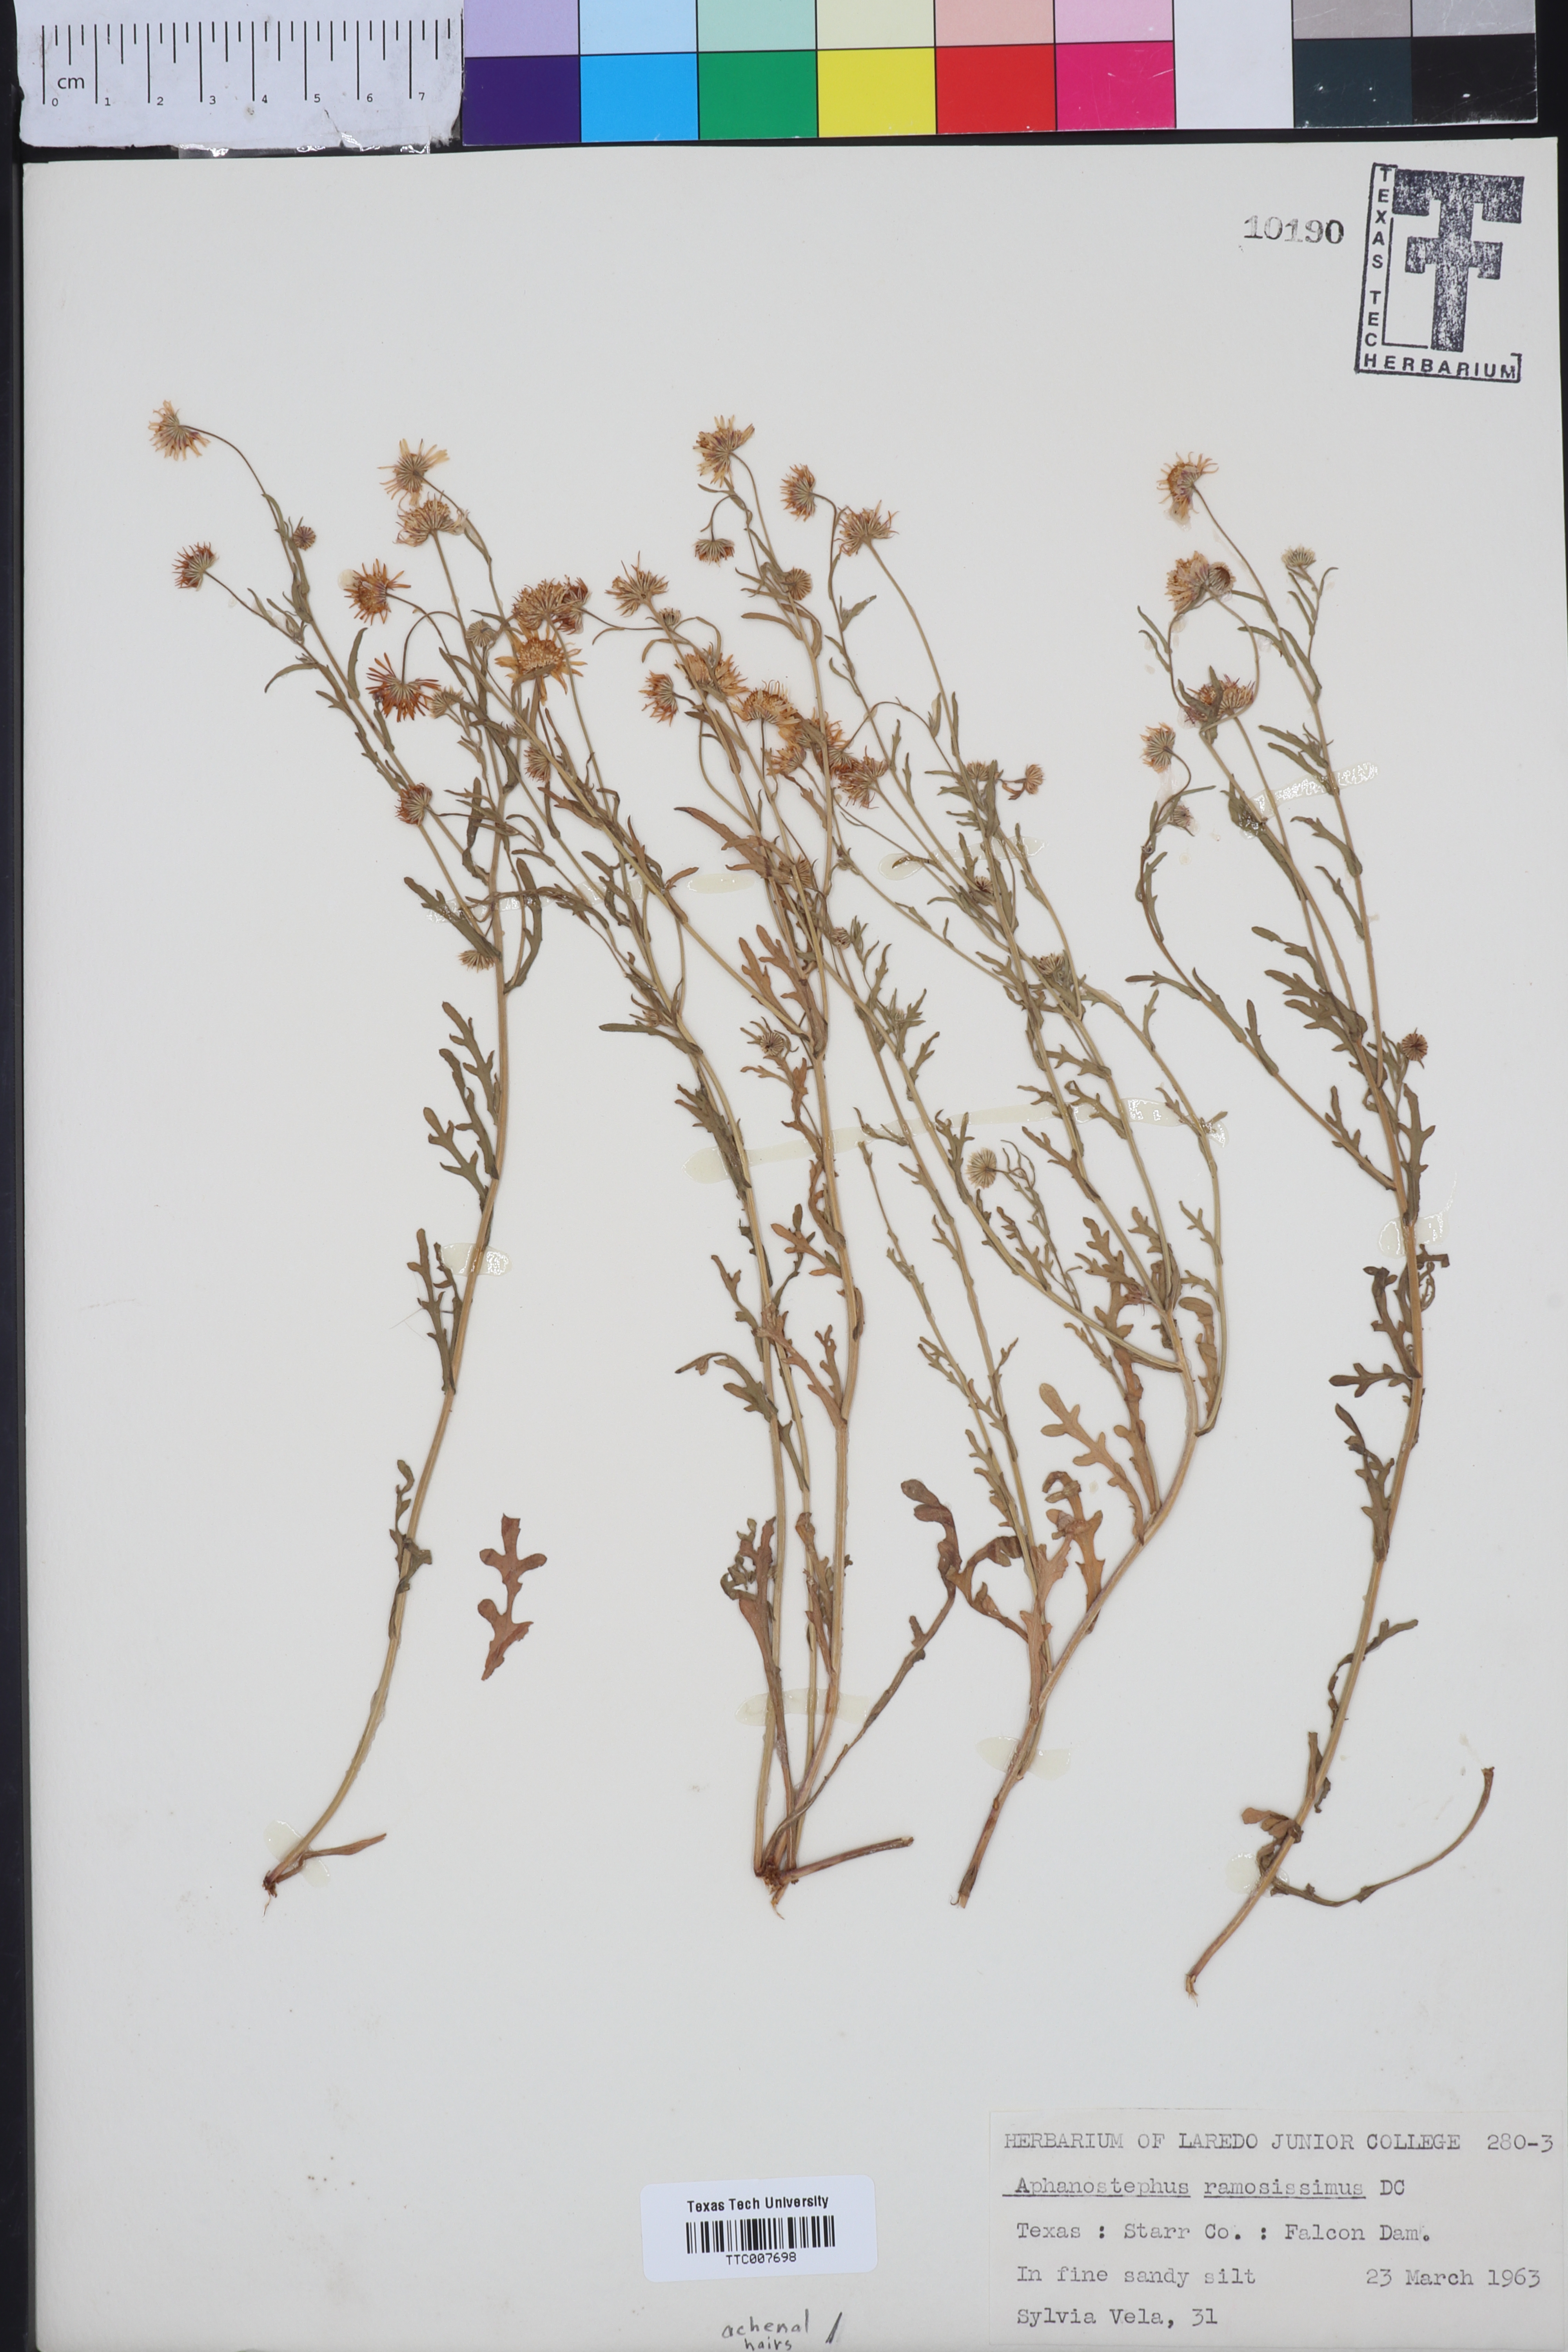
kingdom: Plantae
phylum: Tracheophyta
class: Magnoliopsida
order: Asterales
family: Asteraceae
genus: Aphanostephus
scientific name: Aphanostephus ramosissimus
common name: Plains lazy daisy
